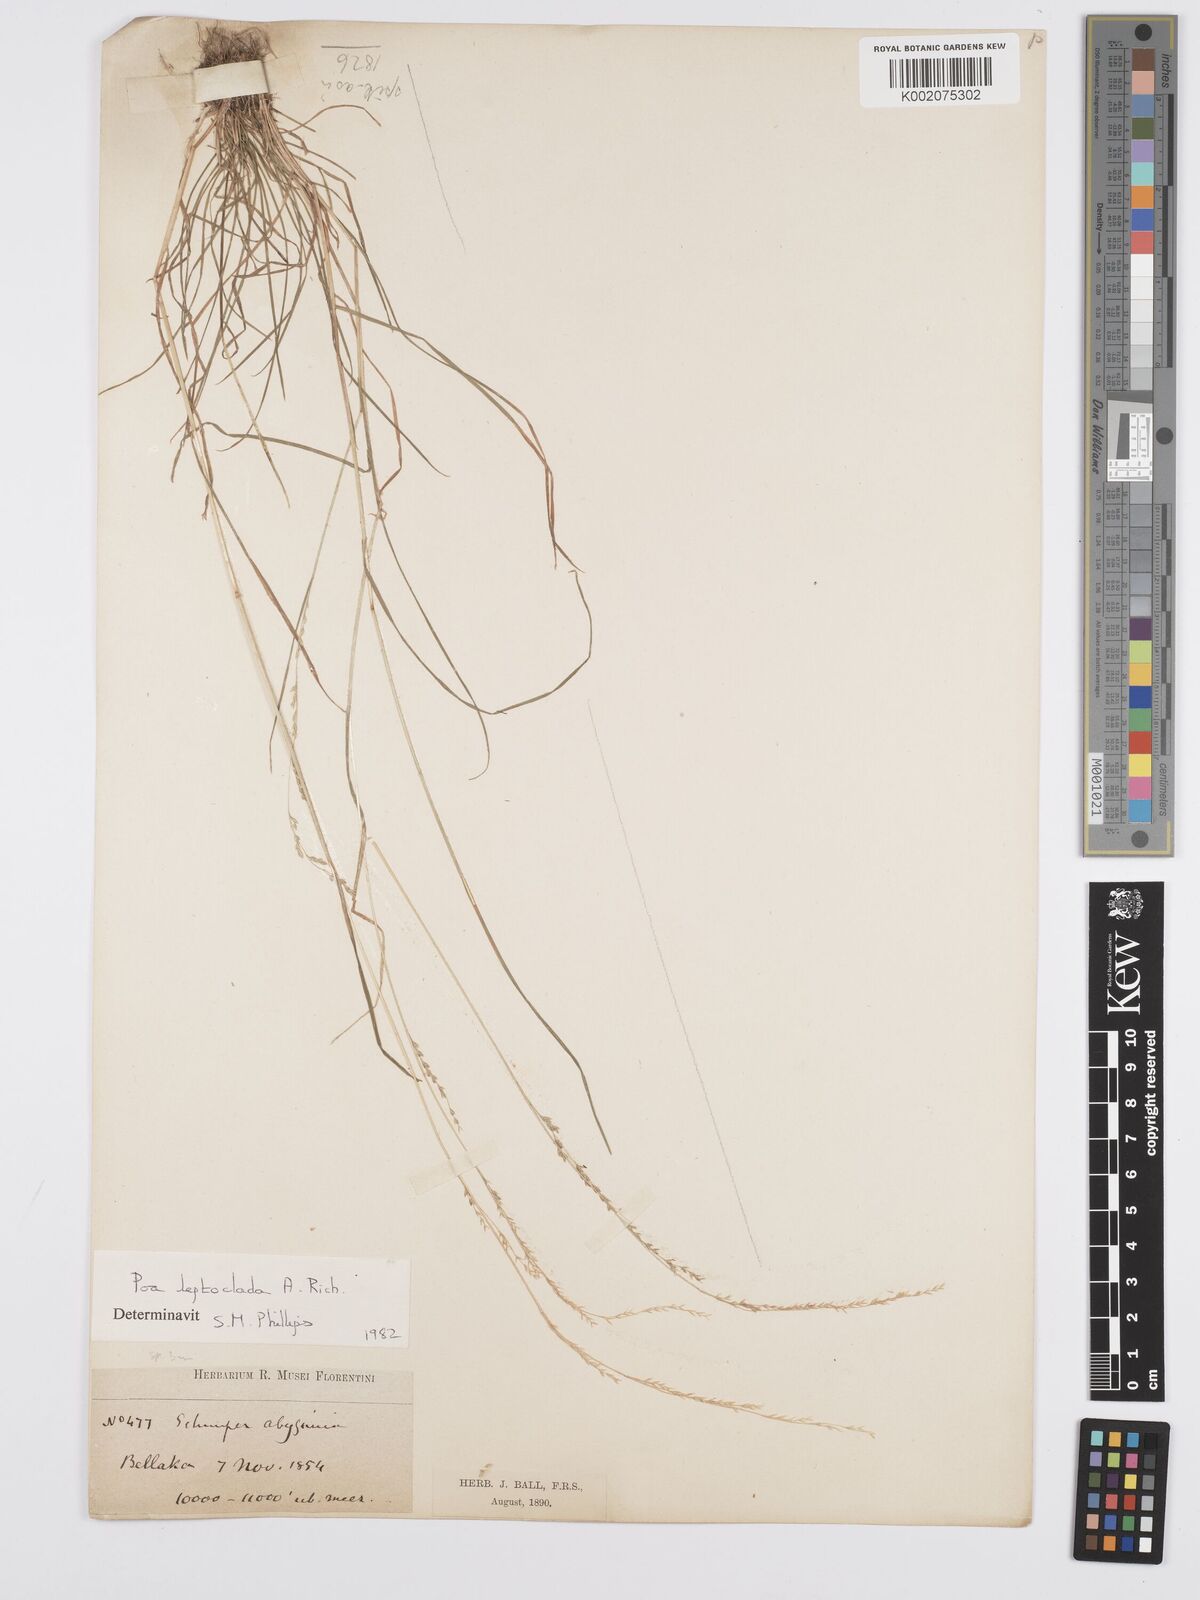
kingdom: Plantae
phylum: Tracheophyta
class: Liliopsida
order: Poales
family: Poaceae
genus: Poa
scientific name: Poa leptoclada
